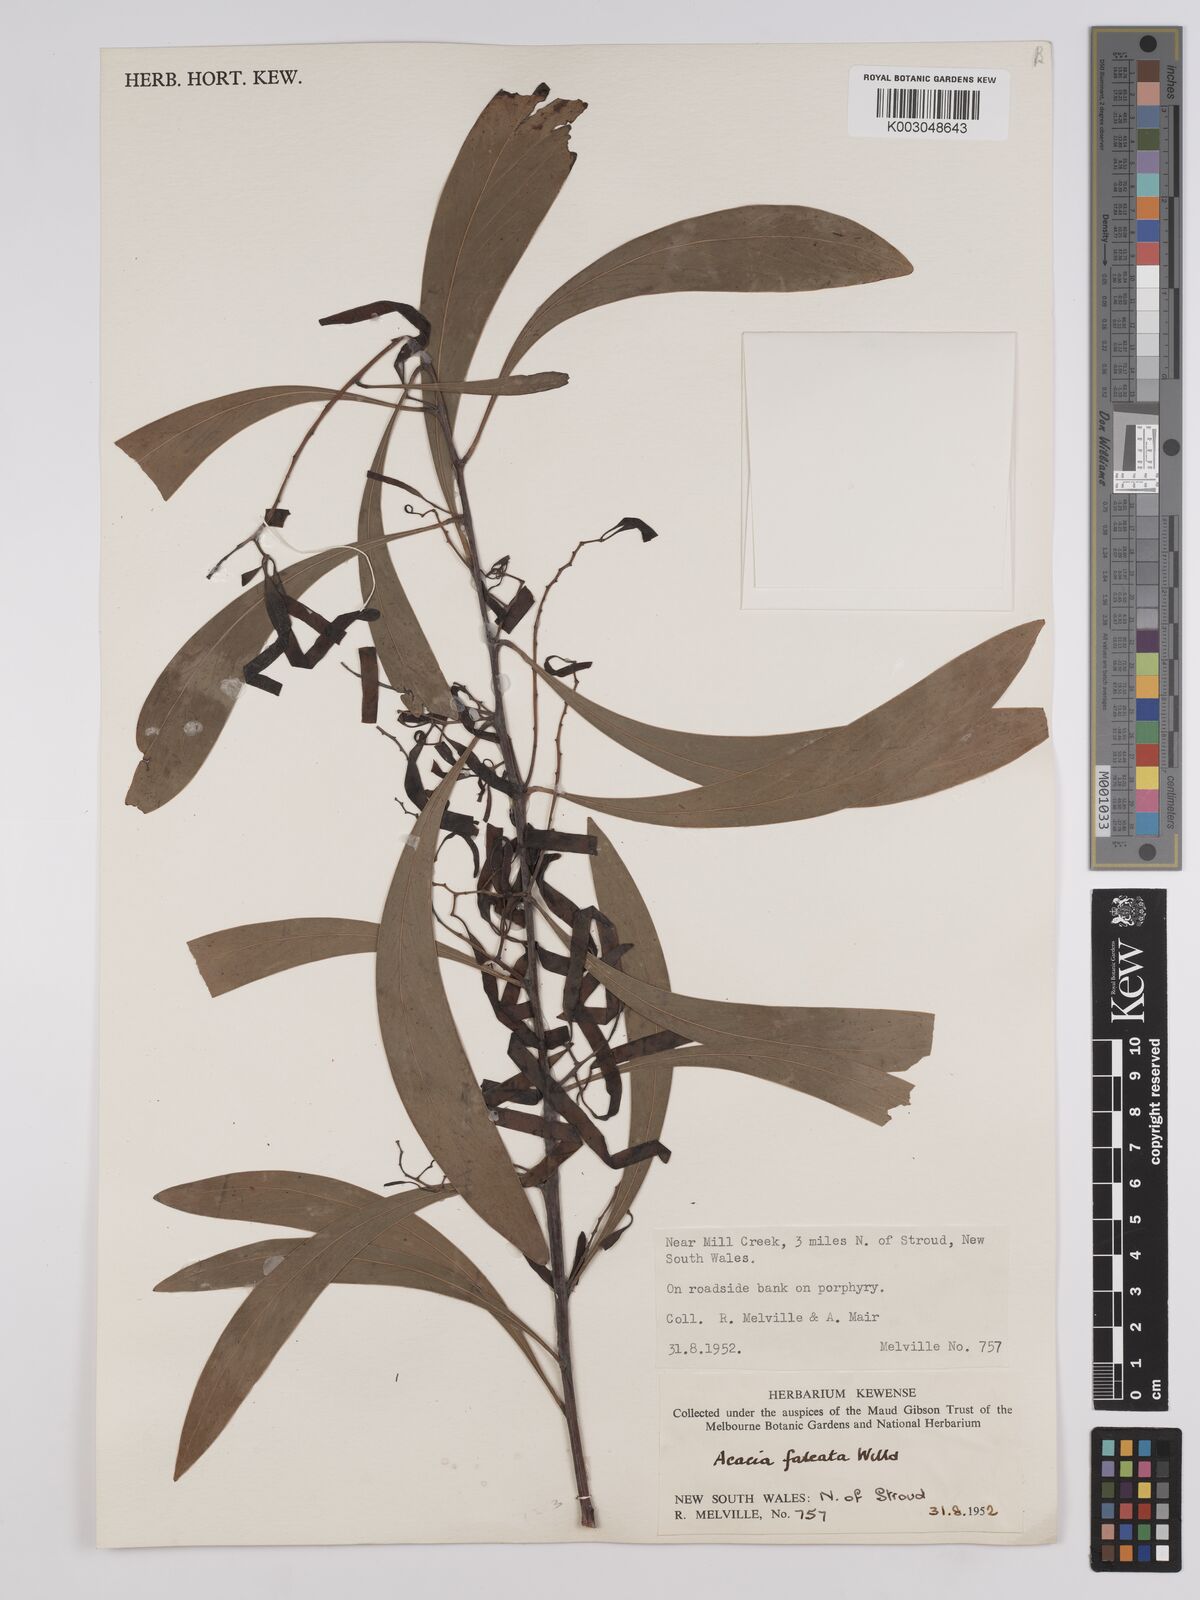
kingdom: Plantae
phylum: Tracheophyta
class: Magnoliopsida
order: Fabales
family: Fabaceae
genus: Acacia
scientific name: Acacia falcata
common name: Burra acacia
